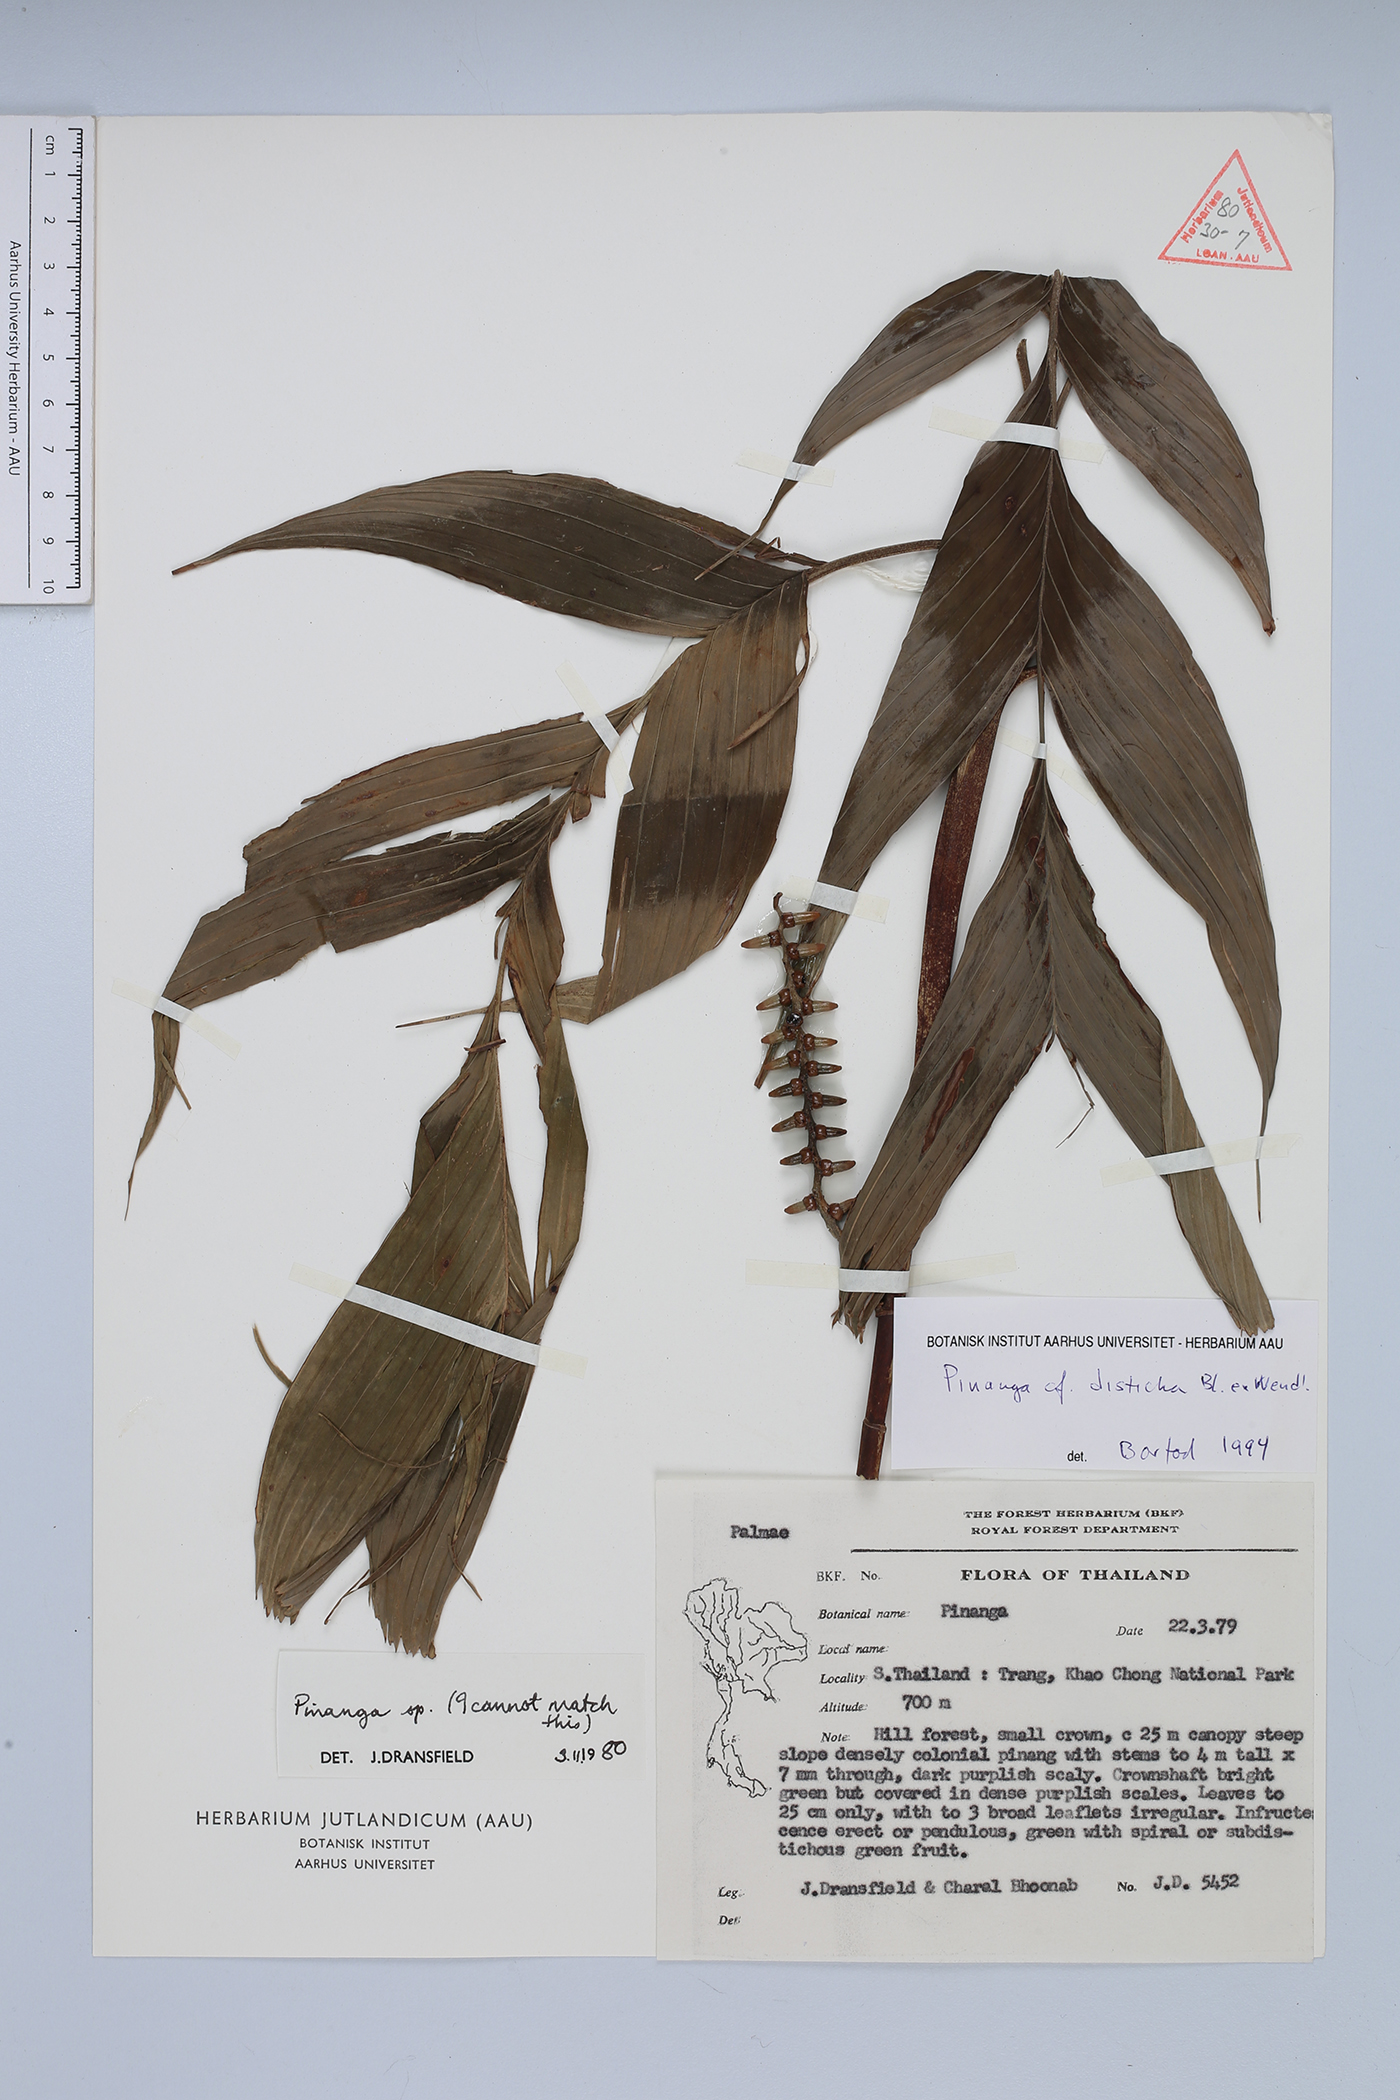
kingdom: Plantae
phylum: Tracheophyta
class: Liliopsida
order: Arecales
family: Arecaceae
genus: Pinanga
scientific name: Pinanga disticha
